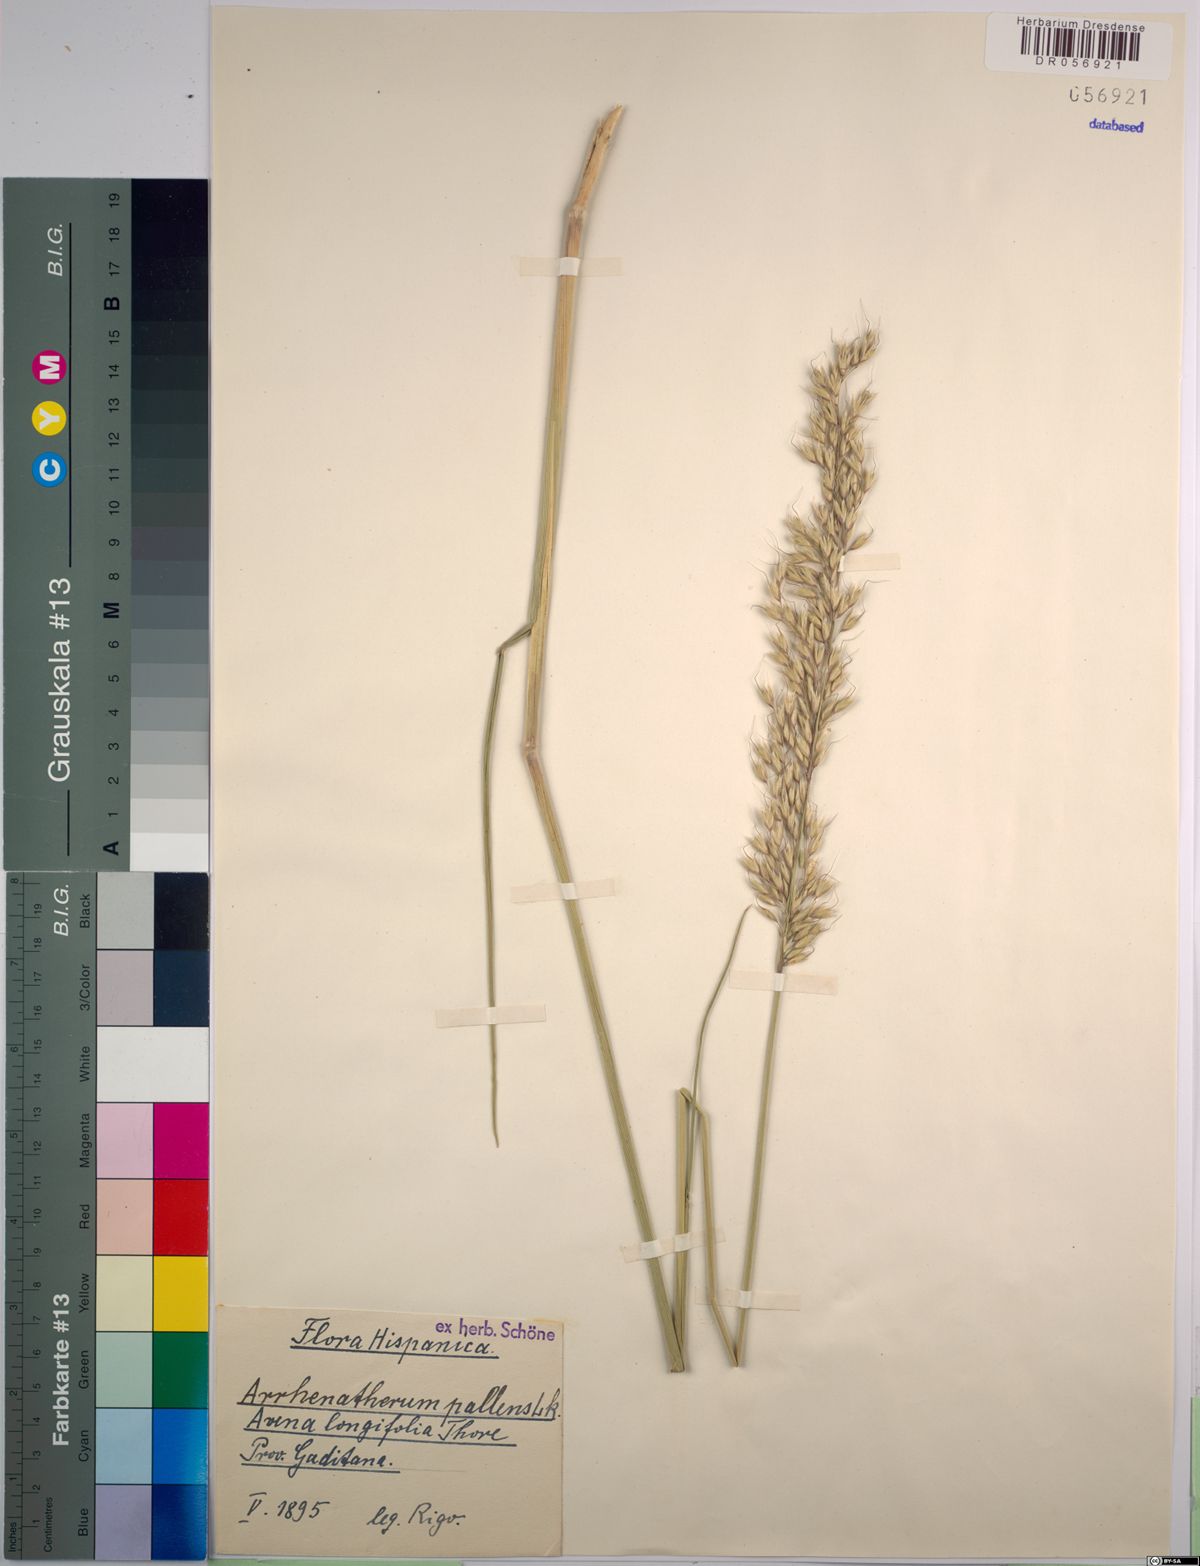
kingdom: Plantae
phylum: Tracheophyta
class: Liliopsida
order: Poales
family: Poaceae
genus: Arrhenatherum
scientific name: Arrhenatherum pallens
